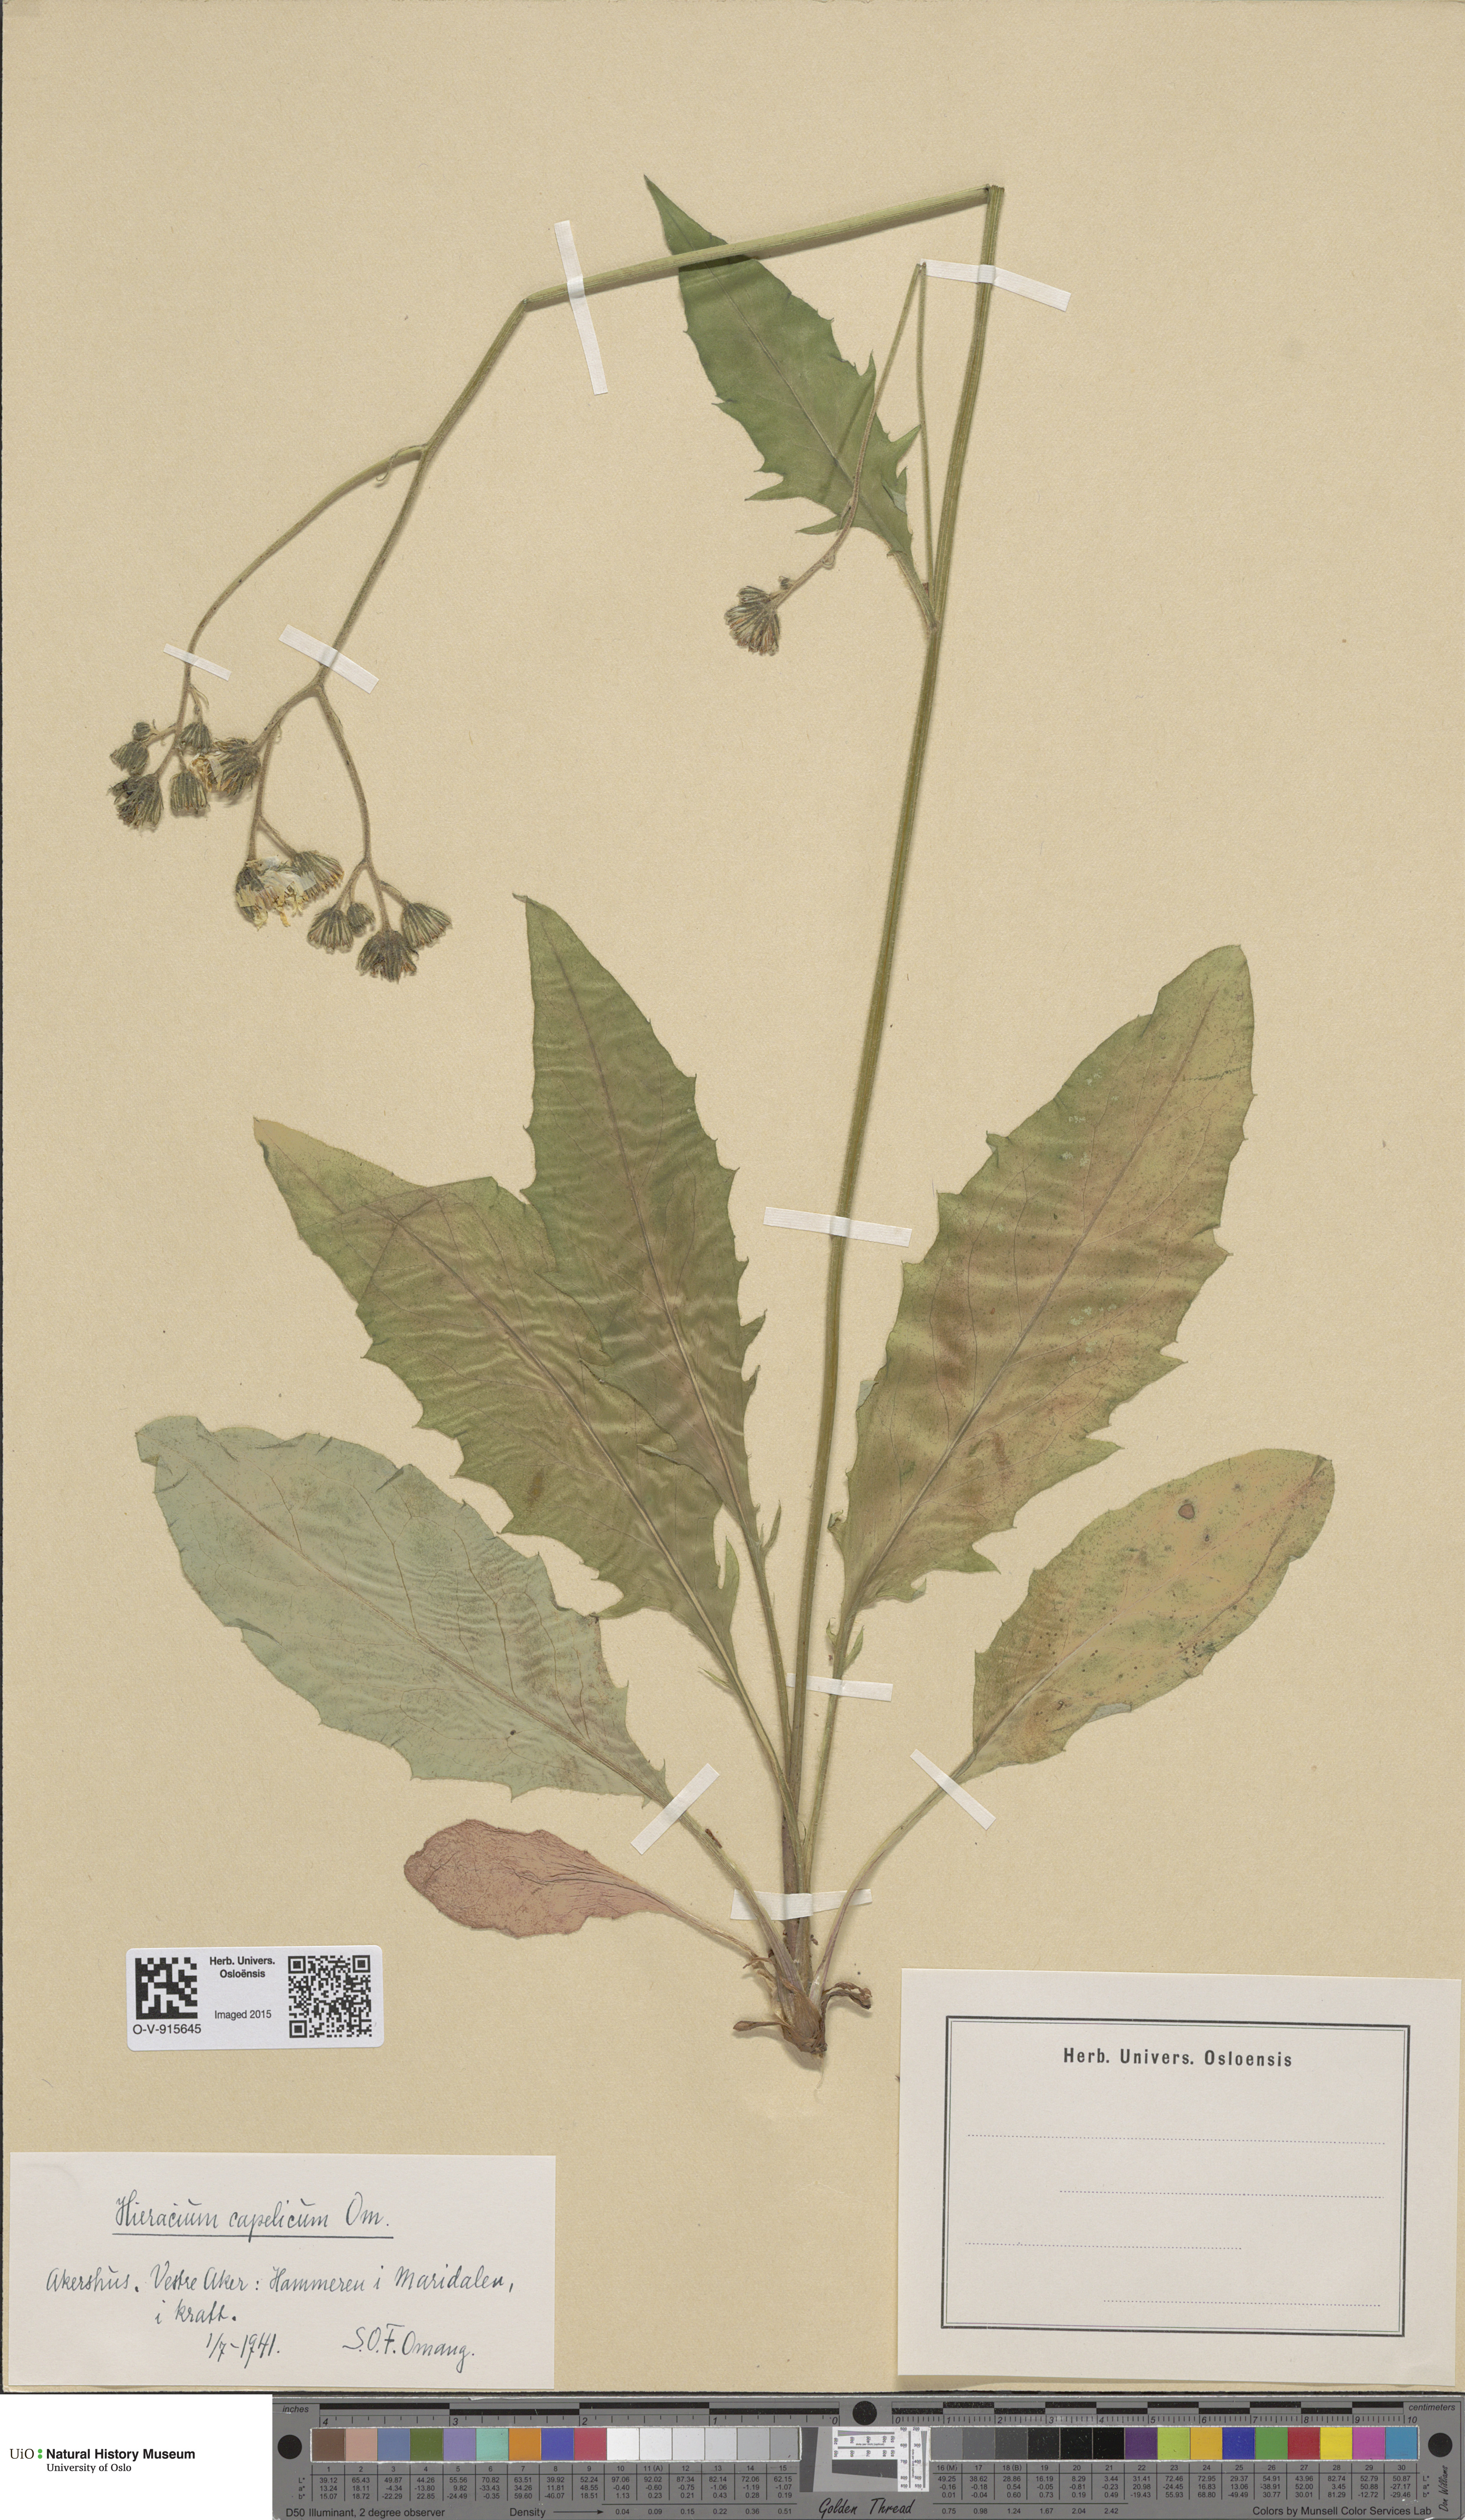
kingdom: Plantae
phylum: Tracheophyta
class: Magnoliopsida
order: Asterales
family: Asteraceae
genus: Hieracium
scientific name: Hieracium
